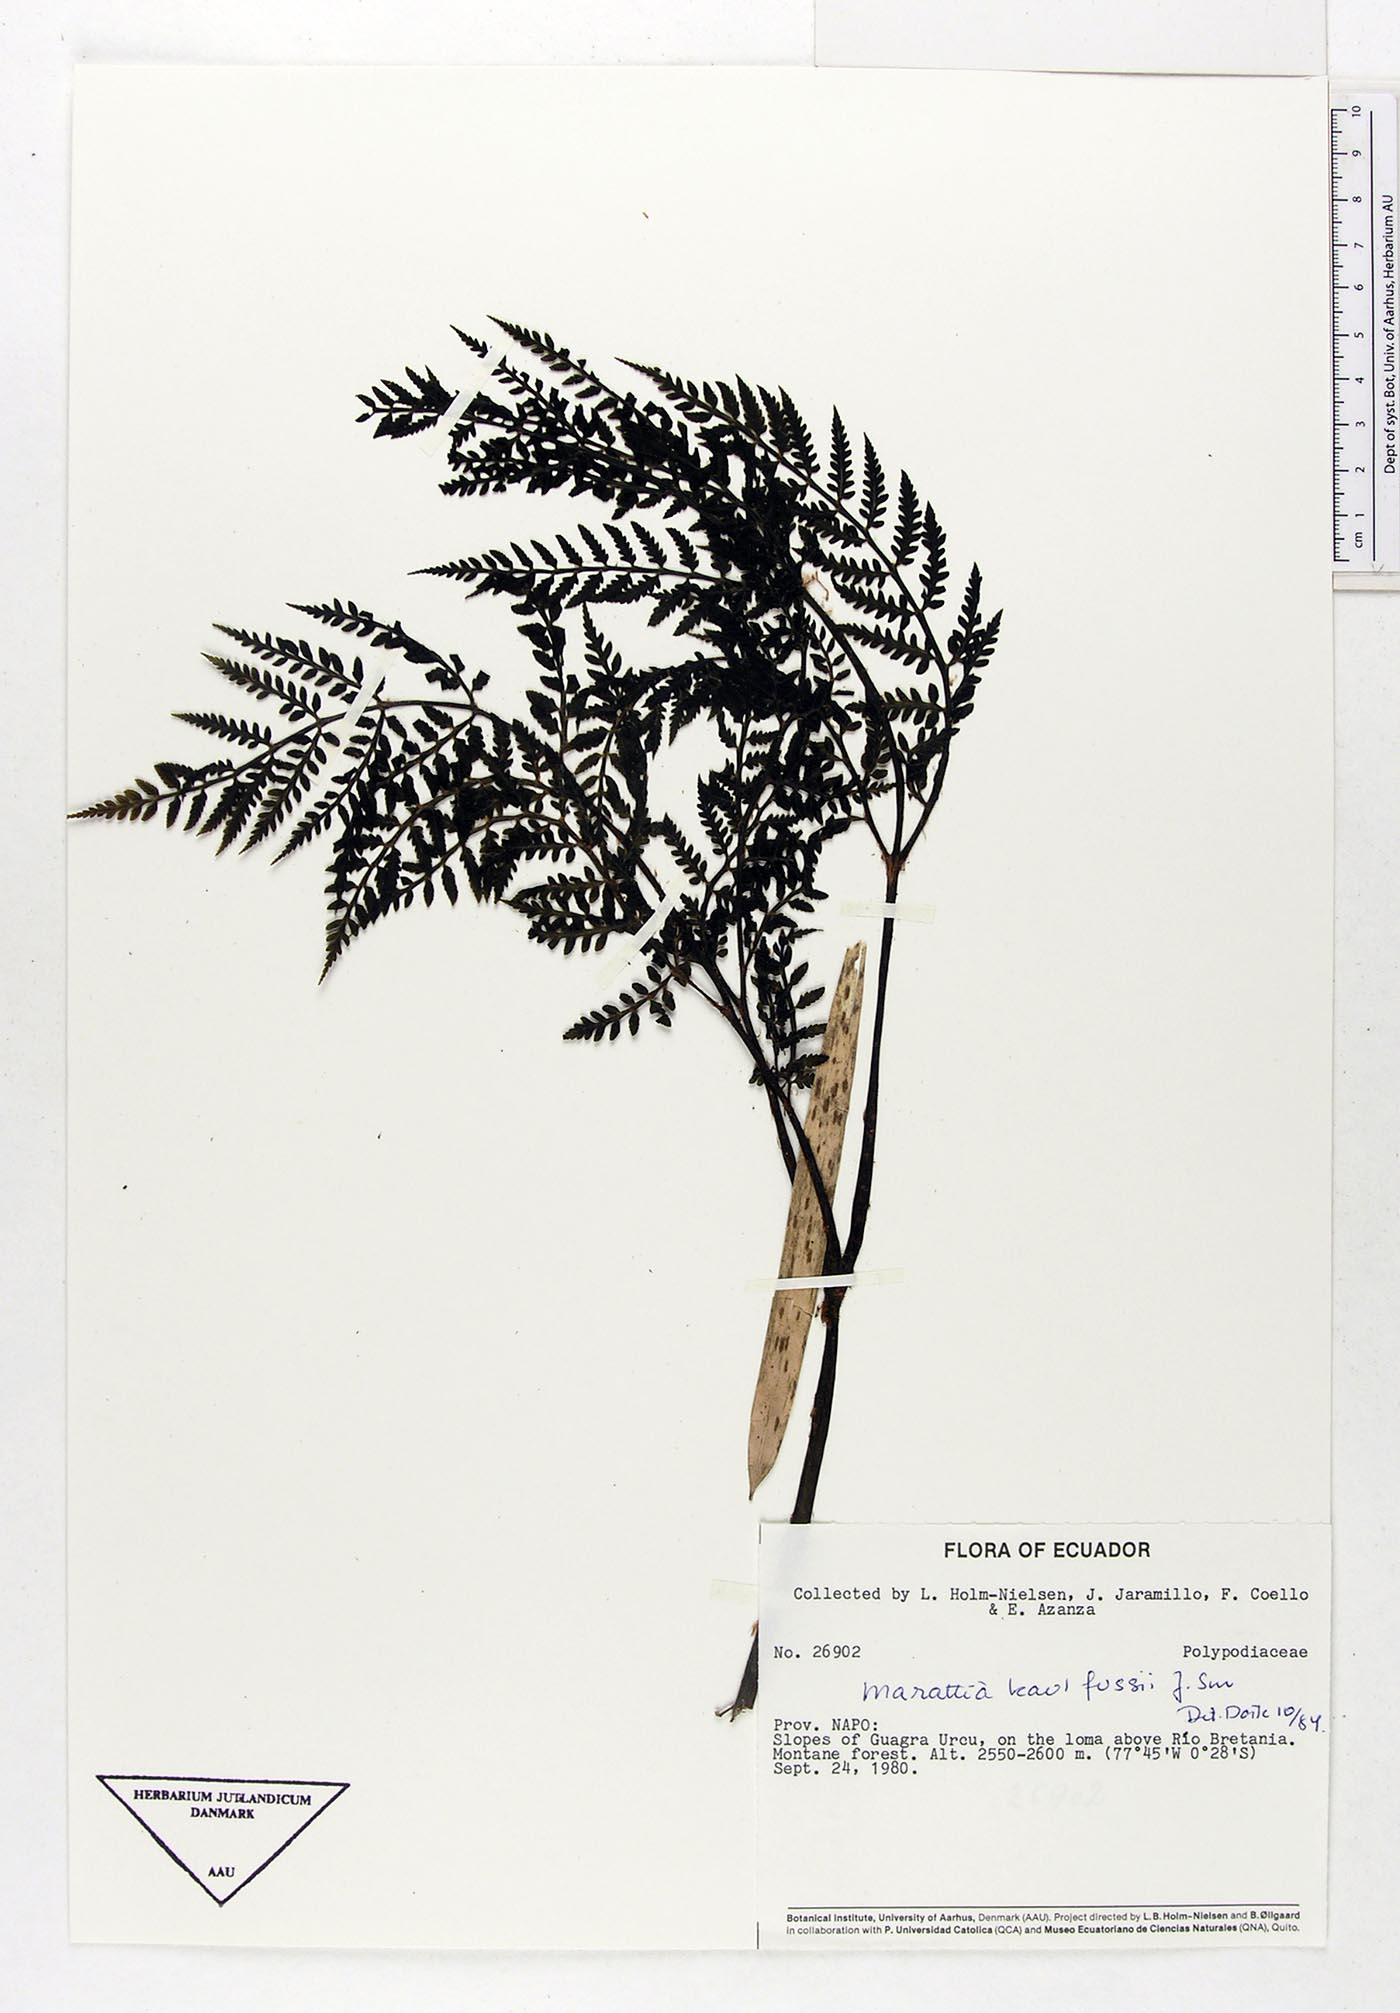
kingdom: Plantae
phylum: Tracheophyta
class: Polypodiopsida
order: Marattiales
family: Marattiaceae
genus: Eupodium
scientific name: Eupodium kaulfussii
